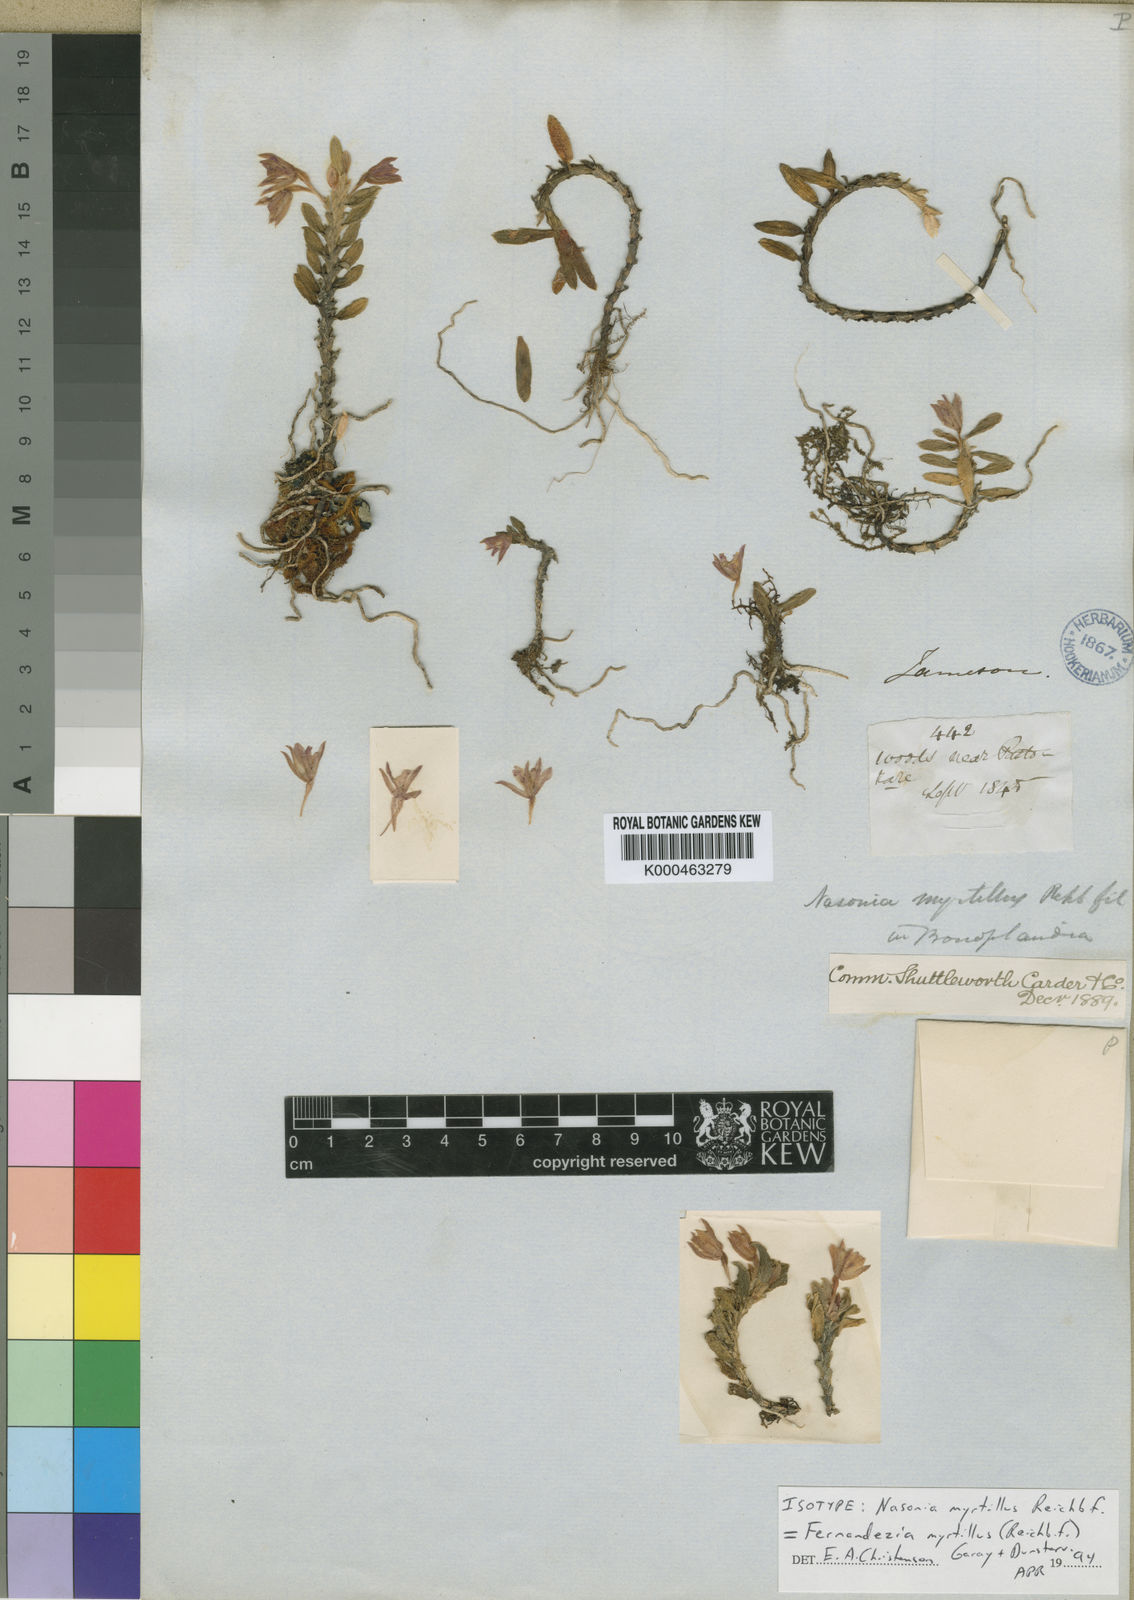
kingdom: Plantae
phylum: Tracheophyta
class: Liliopsida
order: Asparagales
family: Orchidaceae
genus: Fernandezia
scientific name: Fernandezia myrtillus
